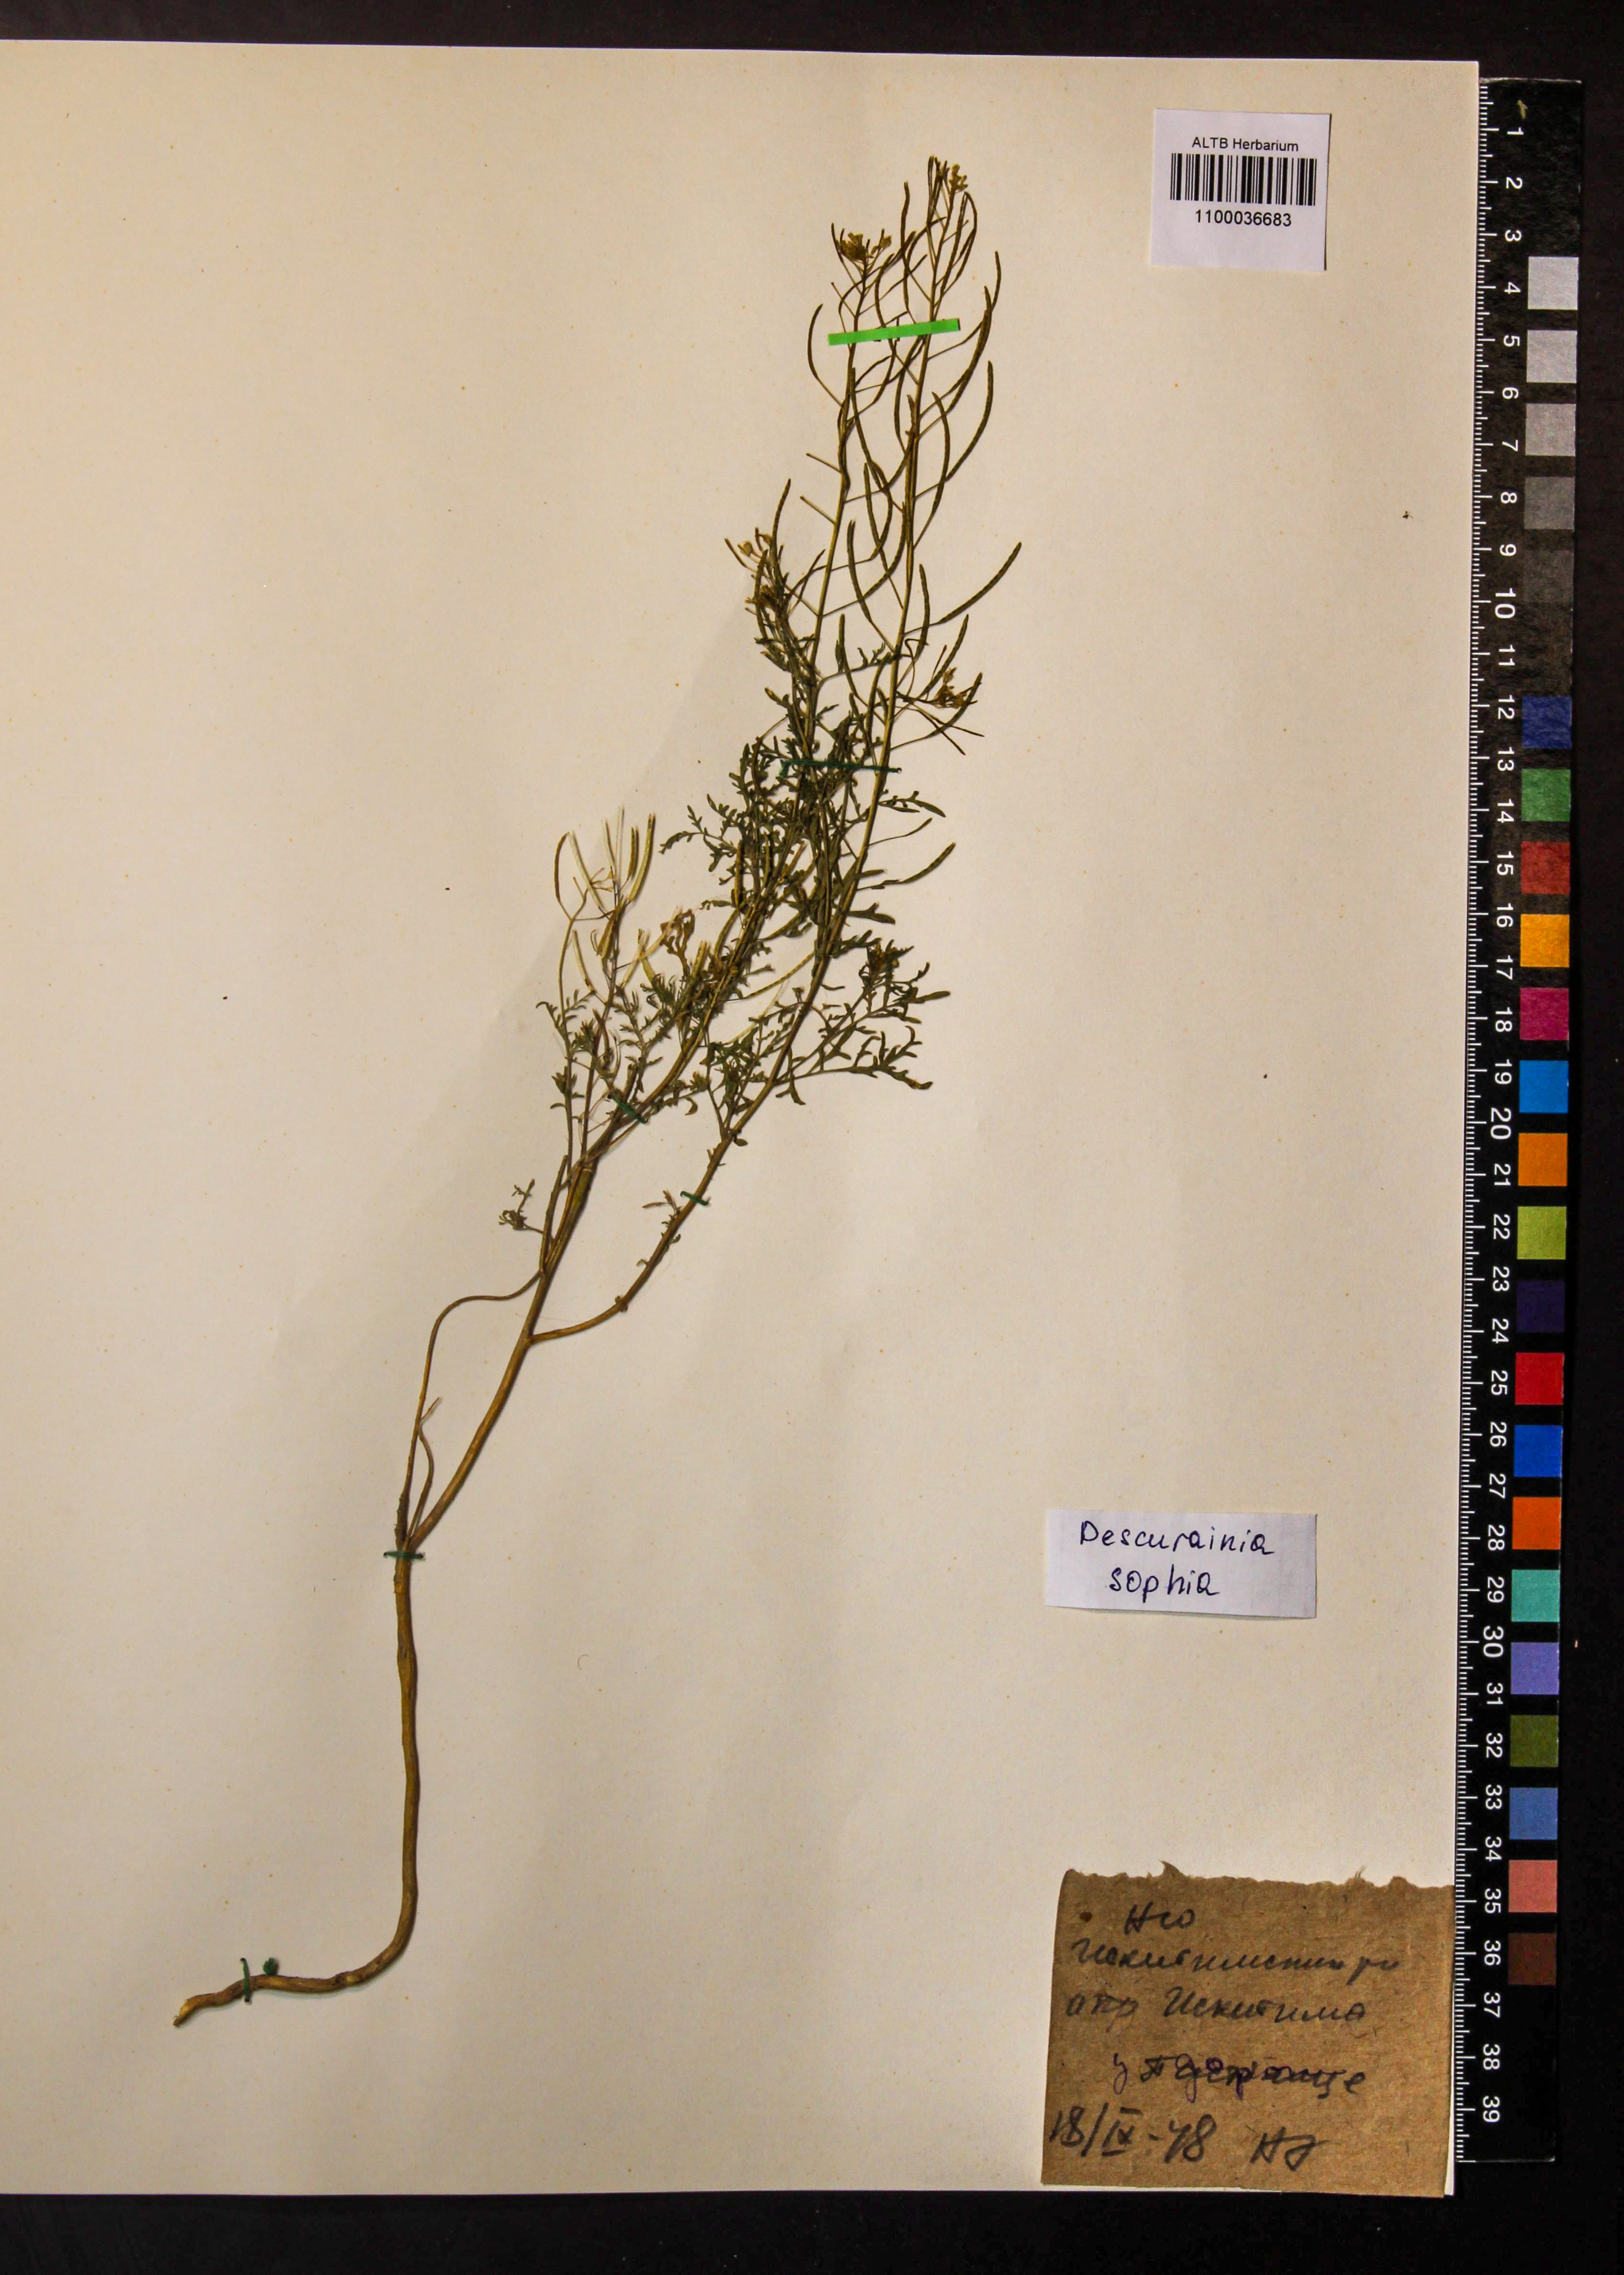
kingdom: Plantae
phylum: Tracheophyta
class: Magnoliopsida
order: Brassicales
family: Brassicaceae
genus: Descurainia
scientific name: Descurainia sophia
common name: Flixweed
